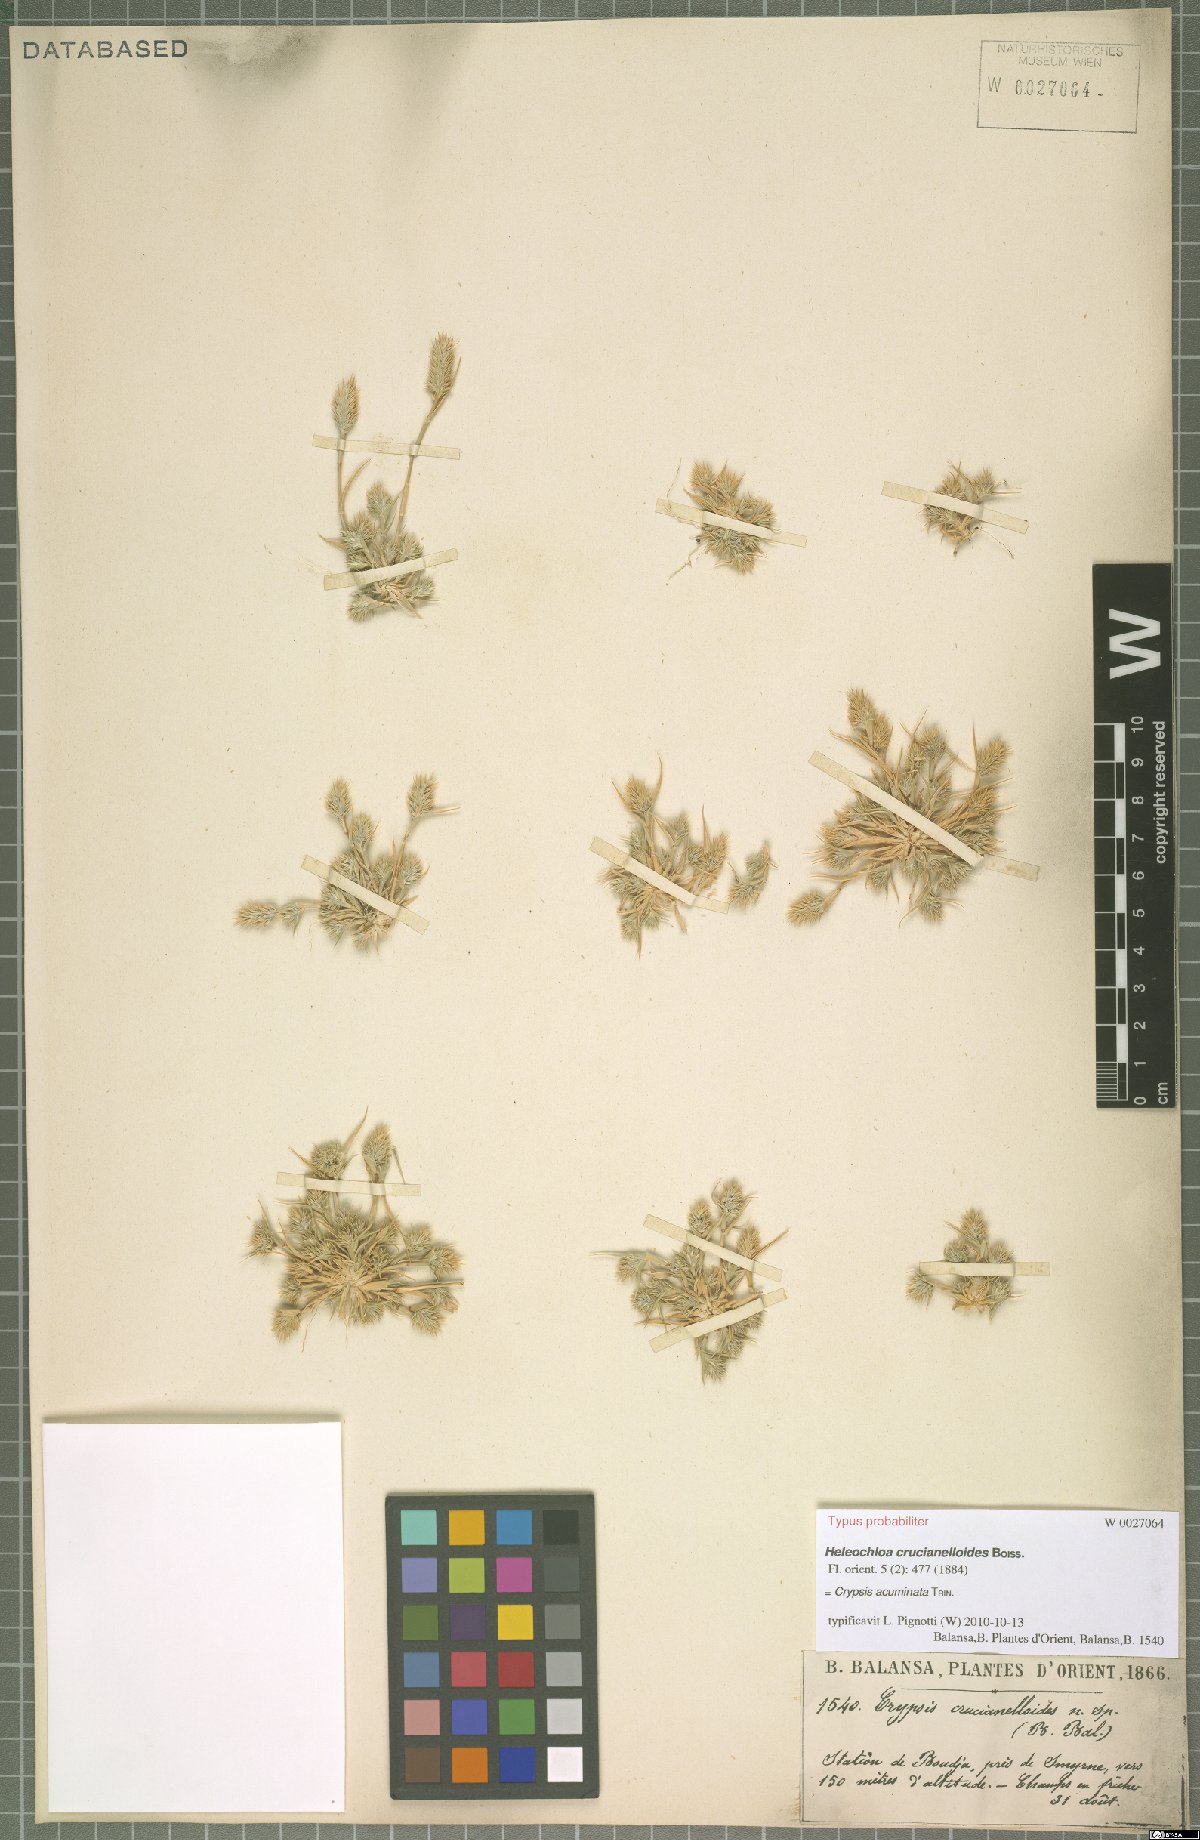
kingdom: Plantae
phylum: Tracheophyta
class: Liliopsida
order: Poales
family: Poaceae
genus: Sporobolus
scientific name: Sporobolus borszczowii
